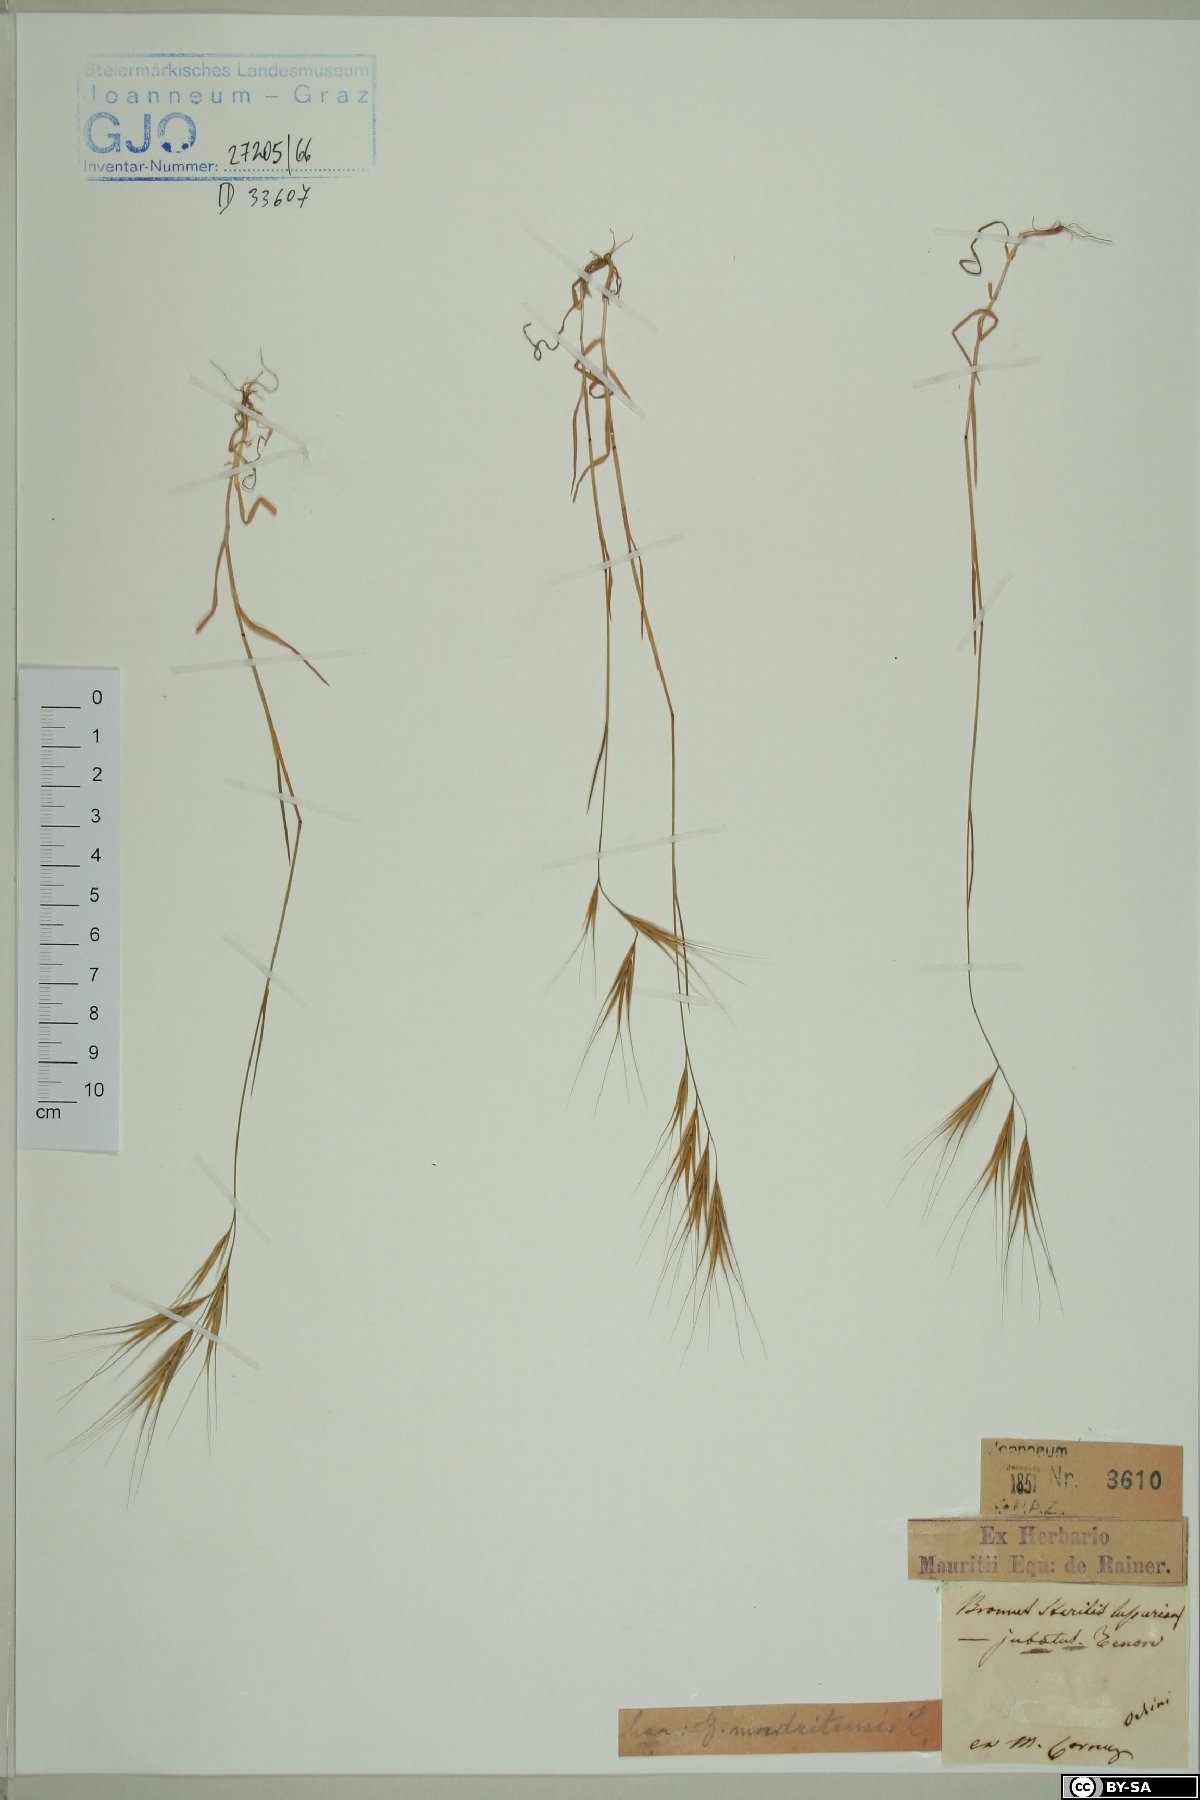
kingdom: Plantae
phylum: Tracheophyta
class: Liliopsida
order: Poales
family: Poaceae
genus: Bromus
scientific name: Bromus sterilis
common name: Poverty brome
